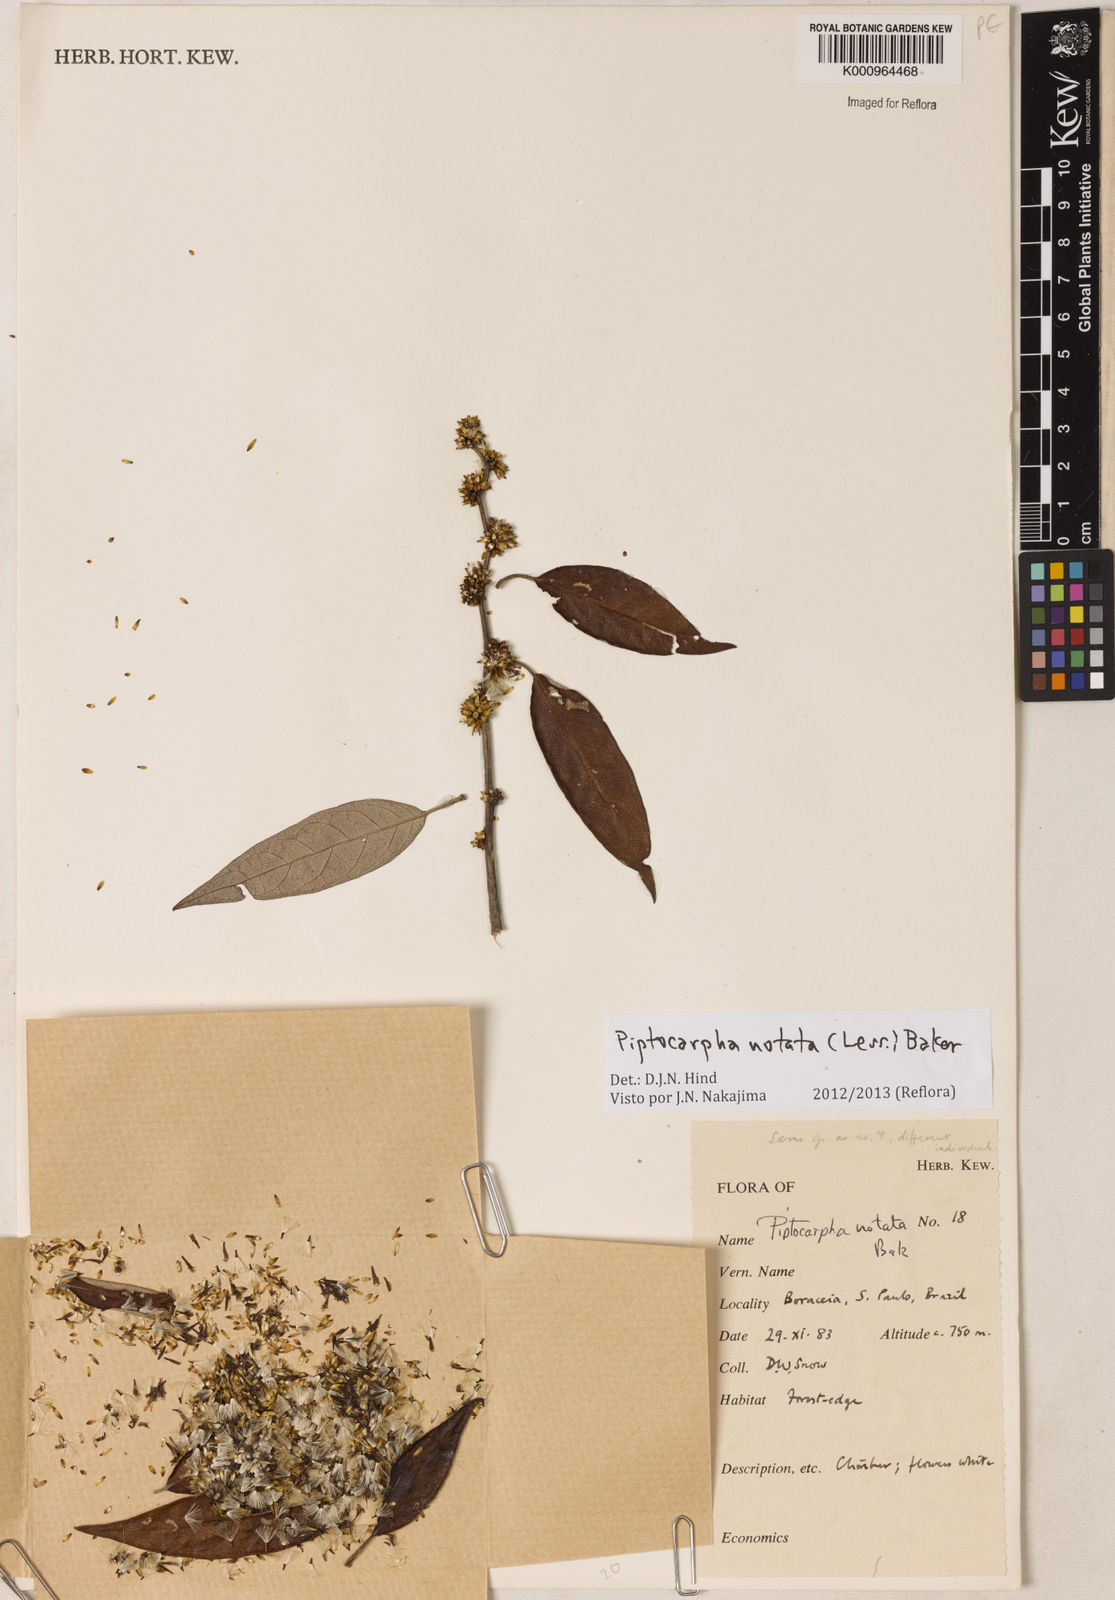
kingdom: Plantae
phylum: Tracheophyta
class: Magnoliopsida
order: Asterales
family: Asteraceae
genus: Piptocarpha
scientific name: Piptocarpha notata
